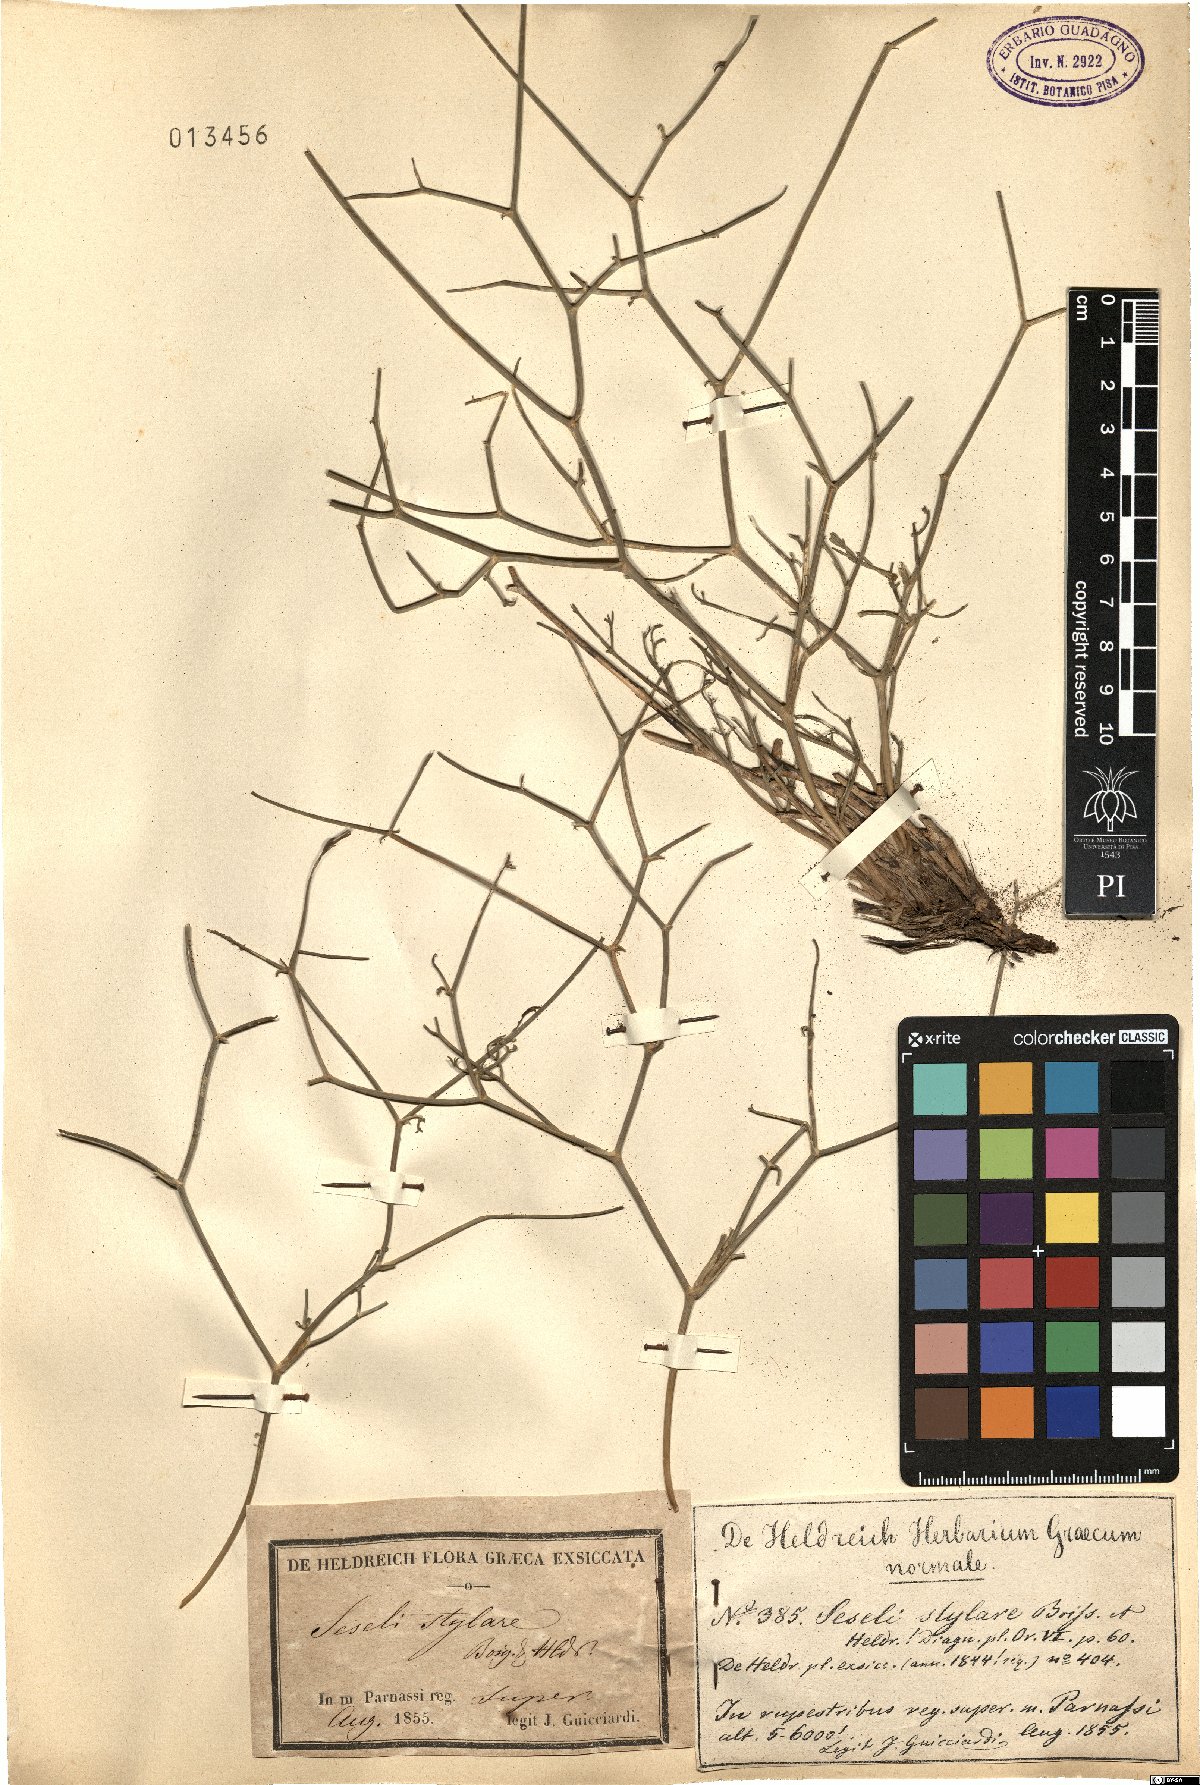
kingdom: Plantae
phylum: Tracheophyta
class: Magnoliopsida
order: Apiales
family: Apiaceae
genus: Thamnosciadium
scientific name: Thamnosciadium junceum
